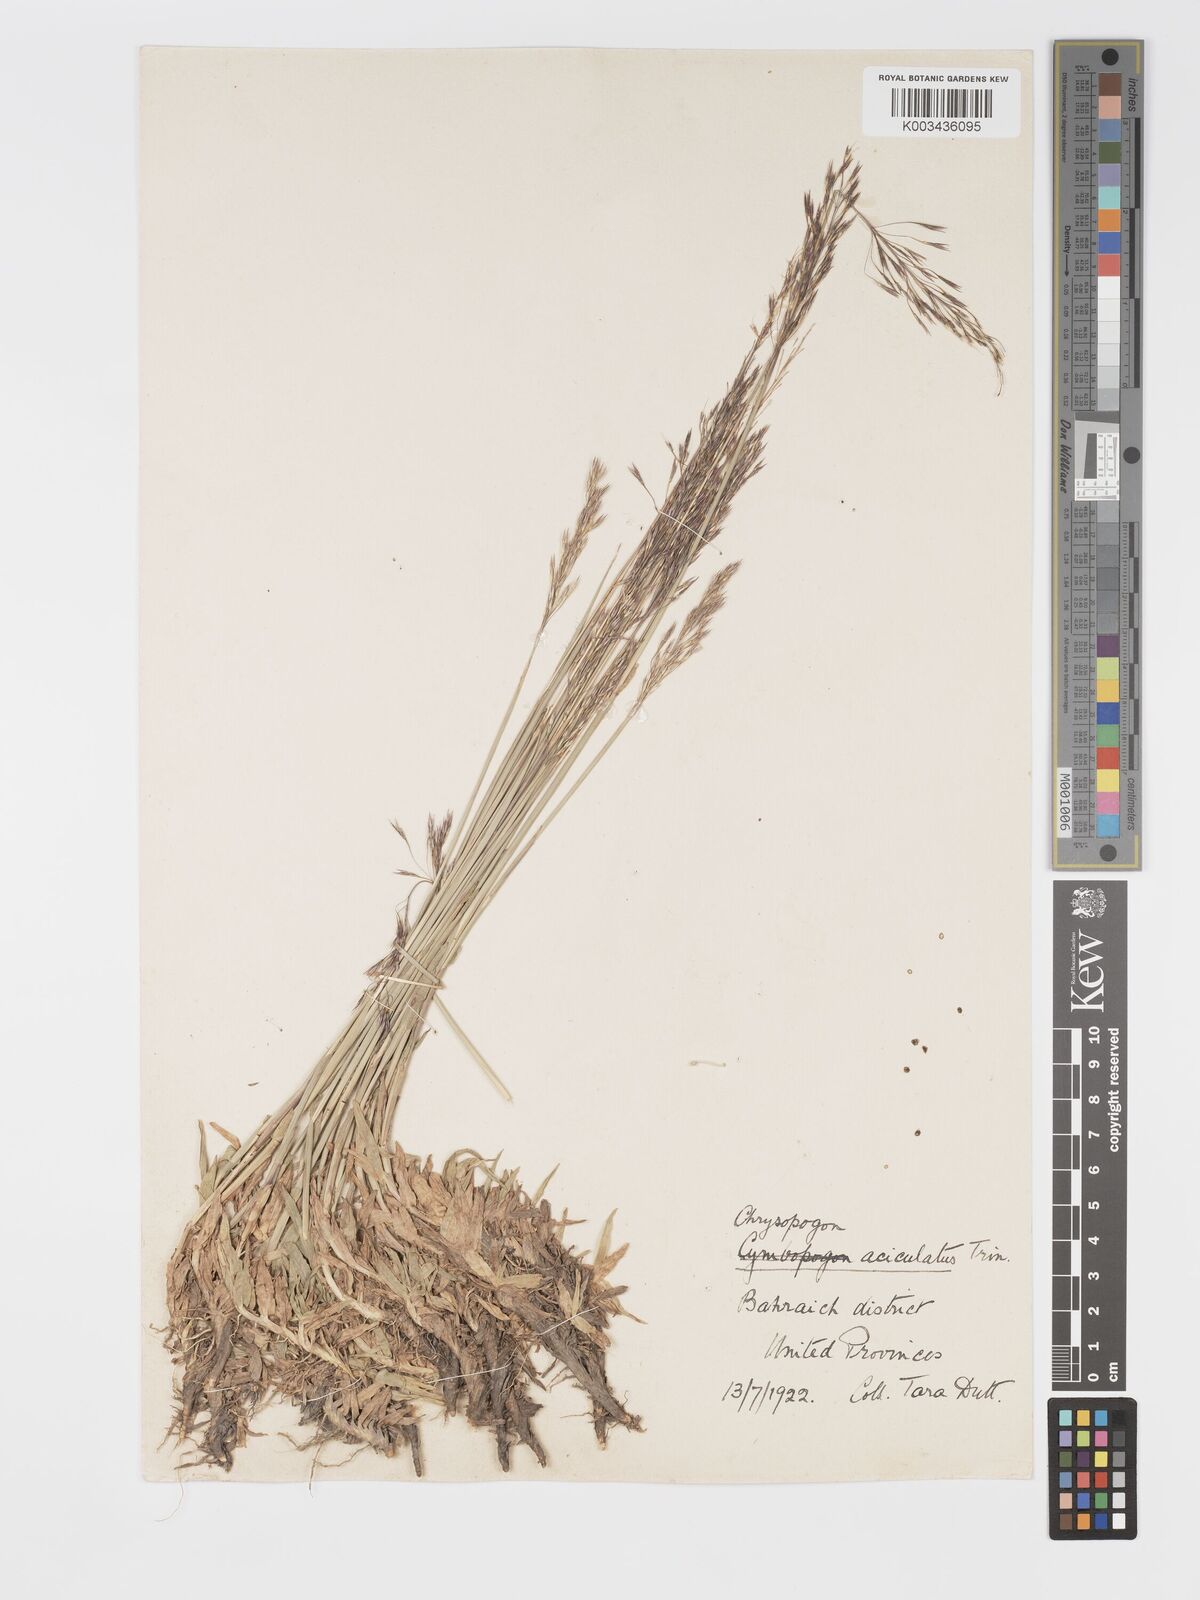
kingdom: Plantae
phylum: Tracheophyta
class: Liliopsida
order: Poales
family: Poaceae
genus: Chrysopogon
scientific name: Chrysopogon aciculatus
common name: Pilipiliula
